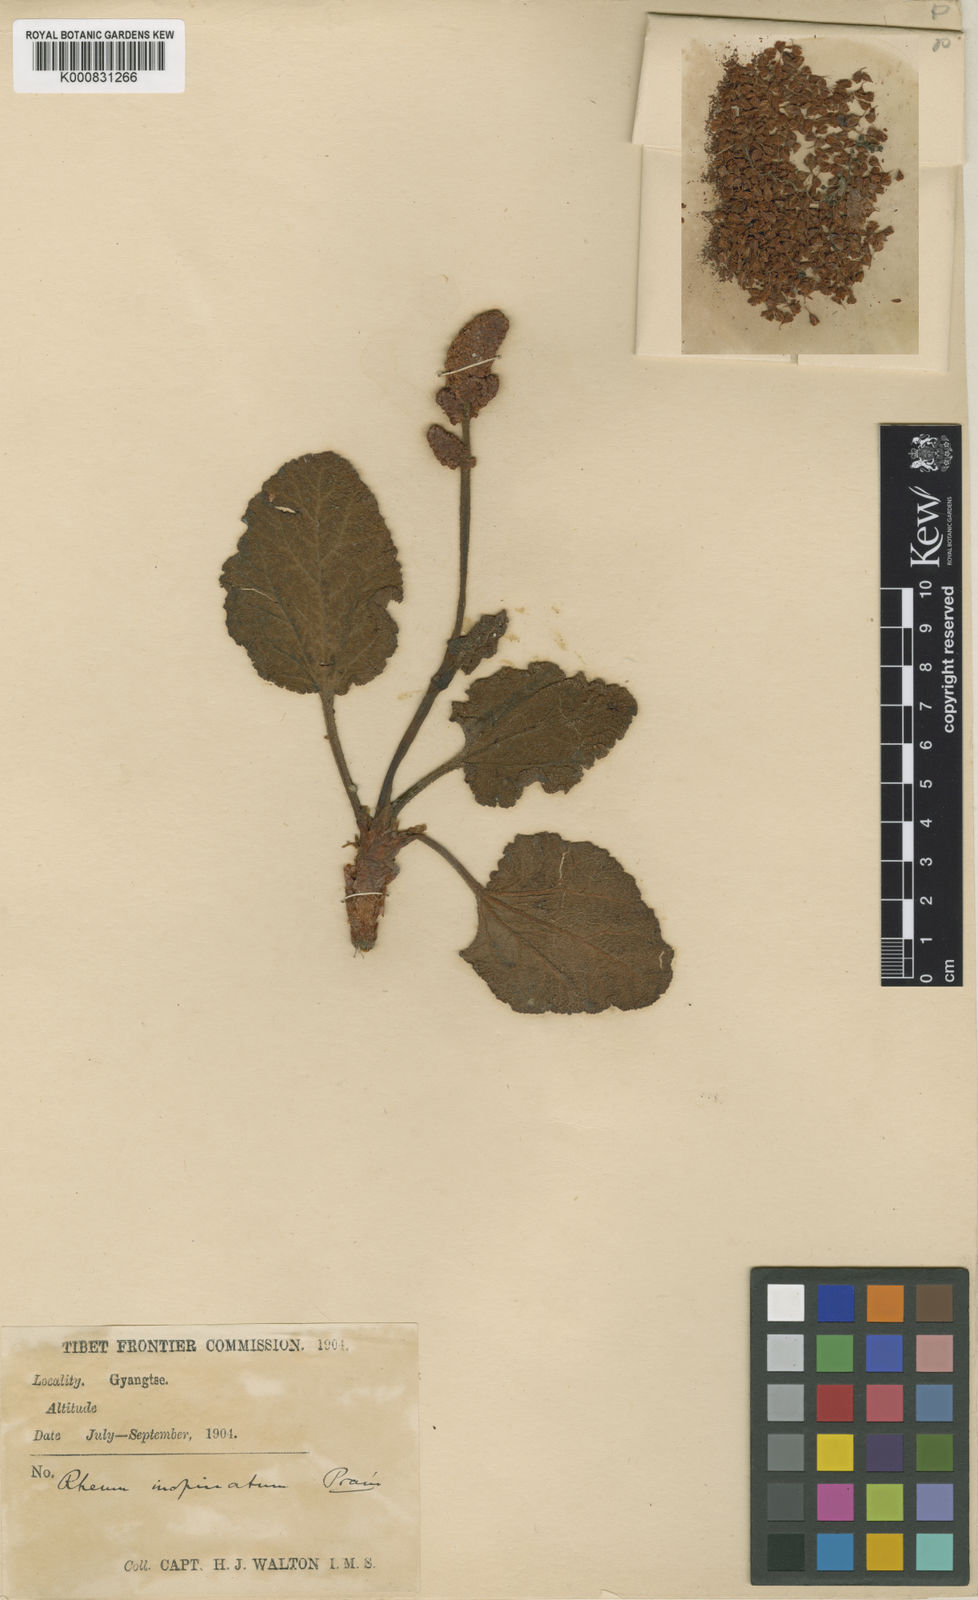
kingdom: Plantae
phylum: Tracheophyta
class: Magnoliopsida
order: Caryophyllales
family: Polygonaceae
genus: Rheum
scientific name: Rheum inopinatum
